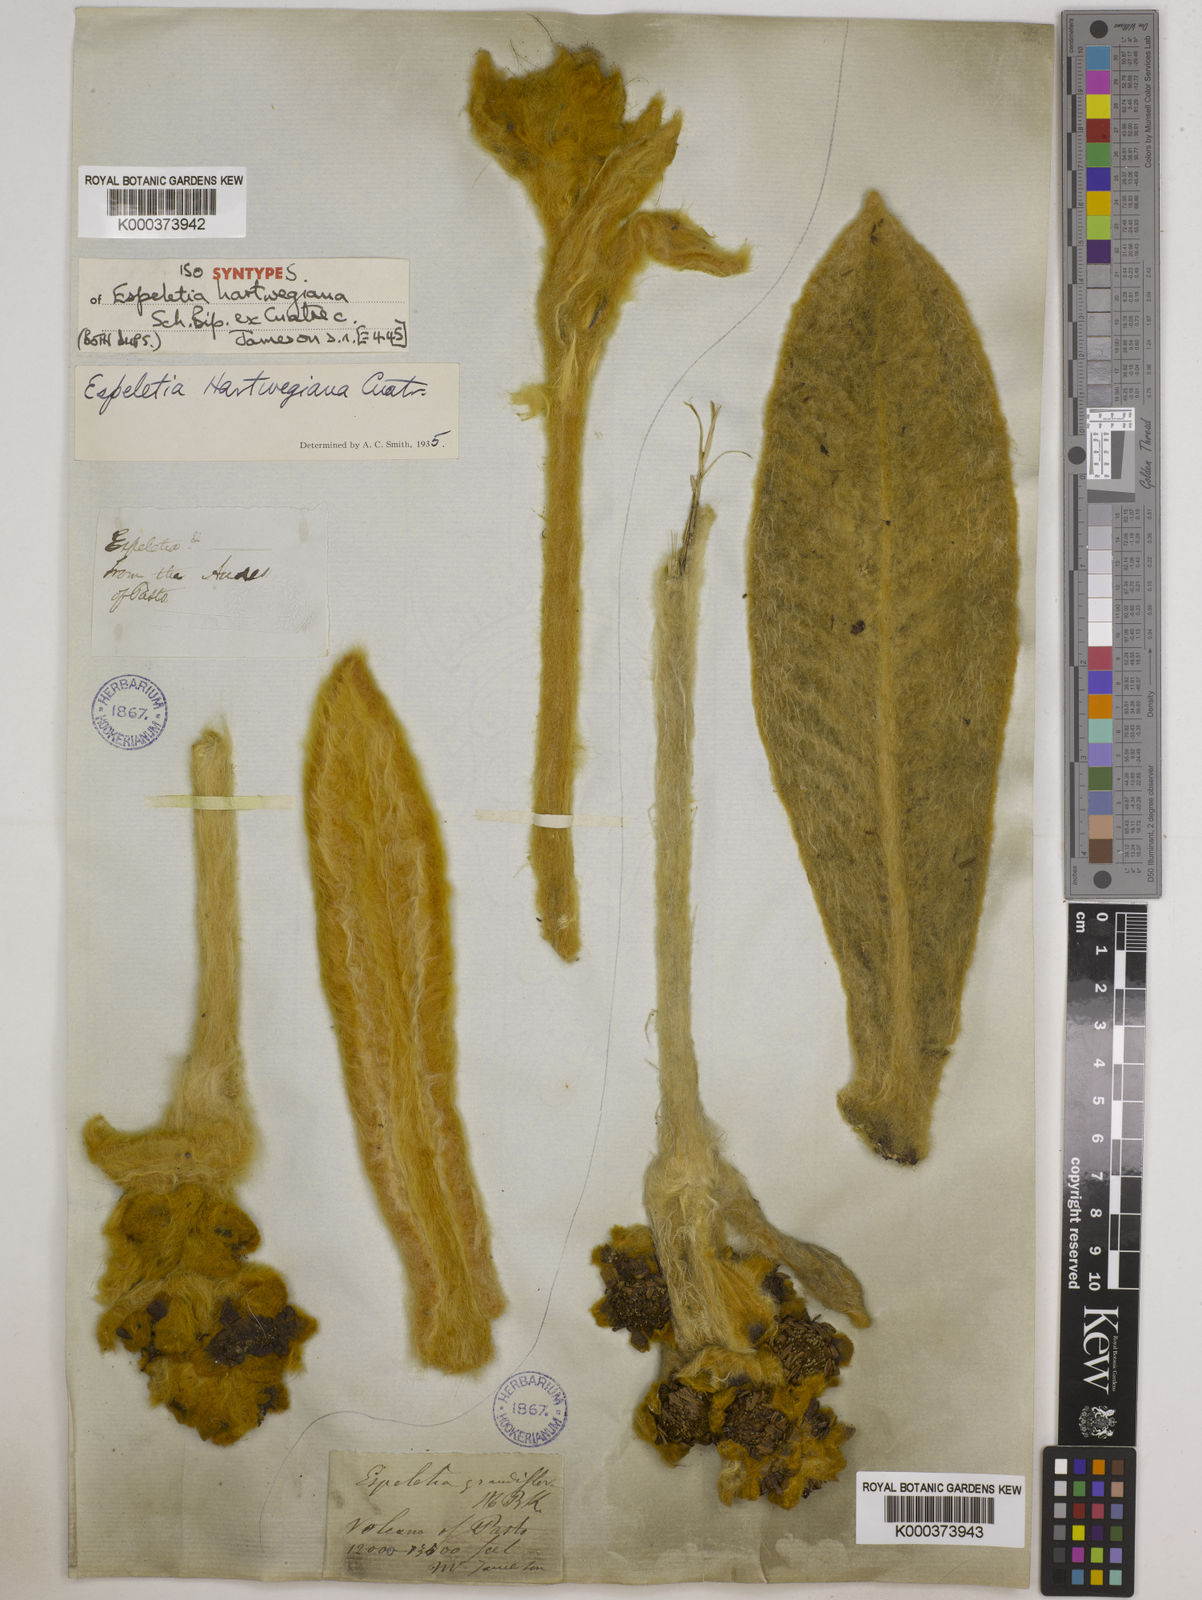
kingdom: Plantae
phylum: Tracheophyta
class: Magnoliopsida
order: Asterales
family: Asteraceae
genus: Espeletia
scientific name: Espeletia hartwegiana
